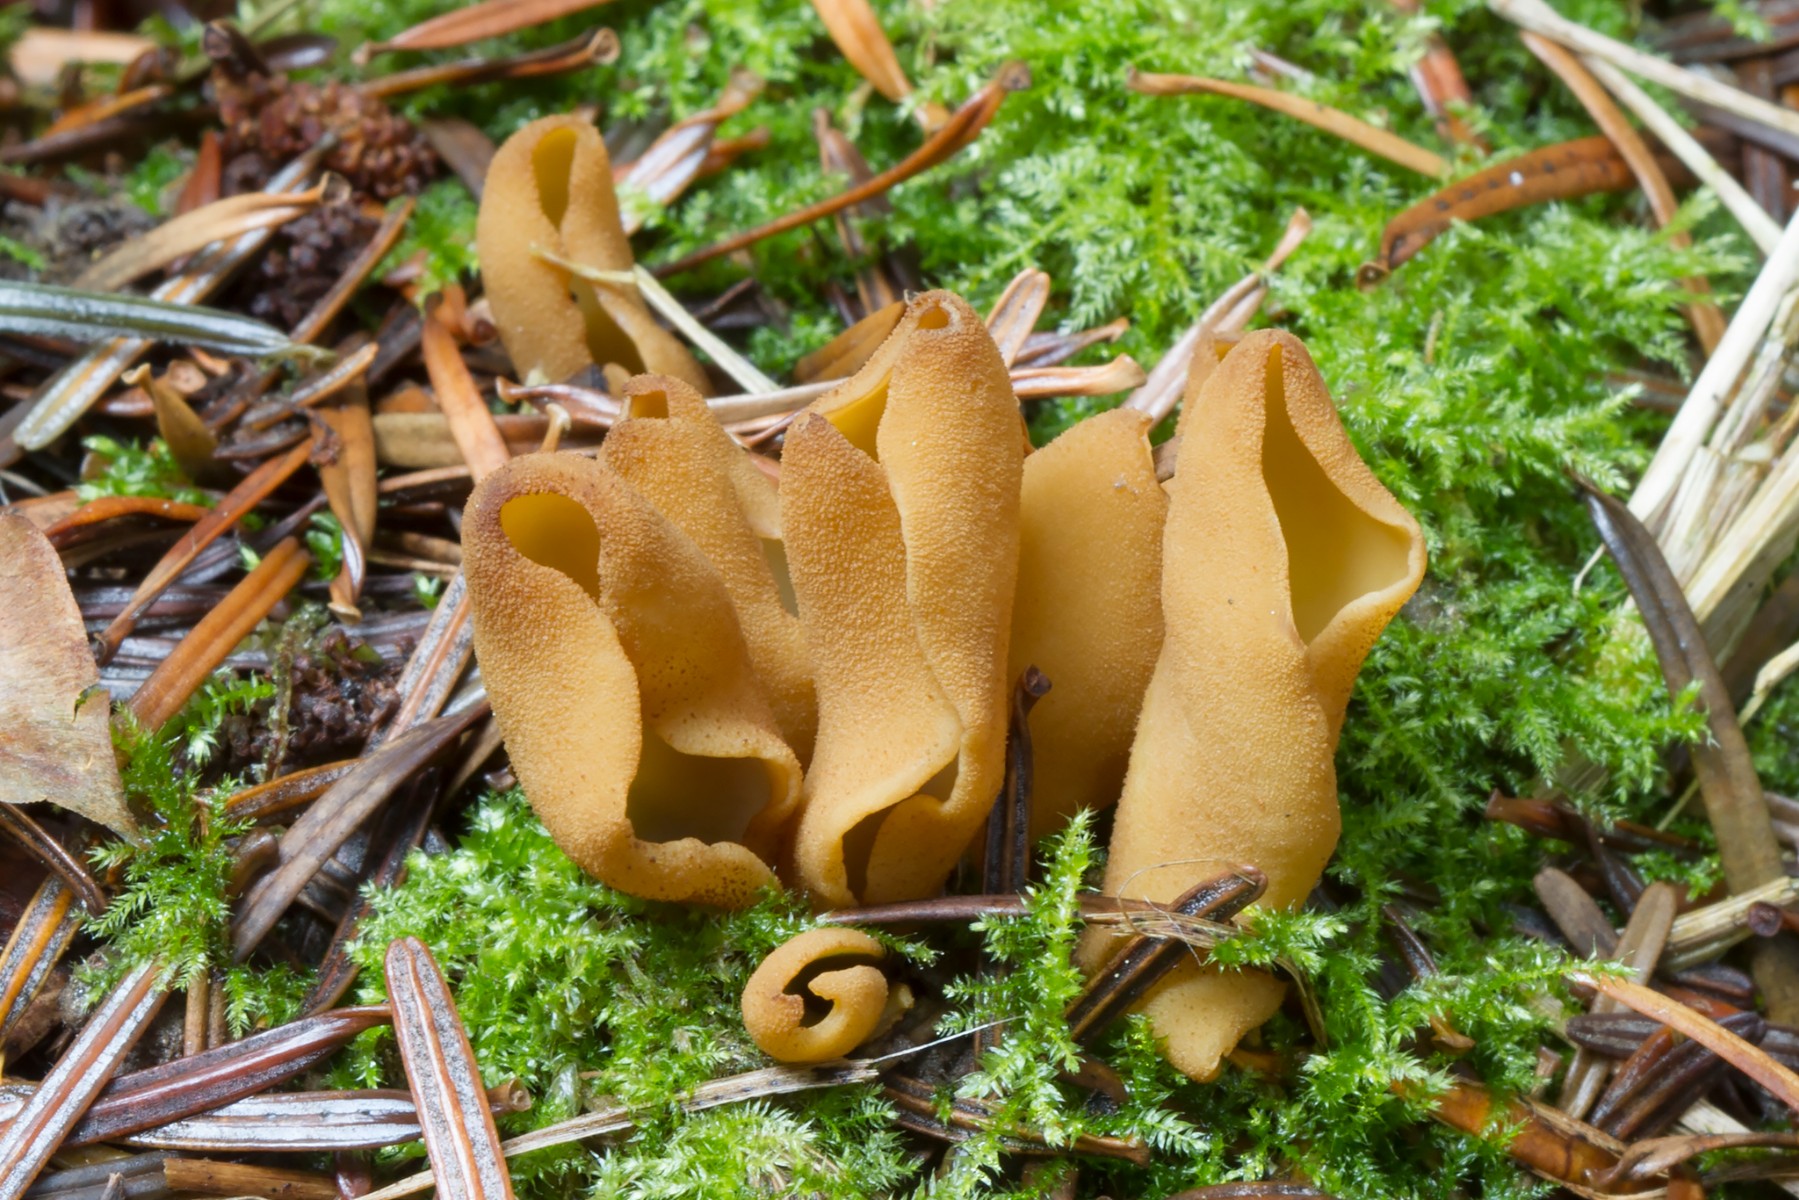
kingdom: Fungi
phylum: Ascomycota
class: Pezizomycetes
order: Pezizales
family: Otideaceae
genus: Otidea
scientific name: Otidea nannfeldtii
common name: jolle-ørebæger
